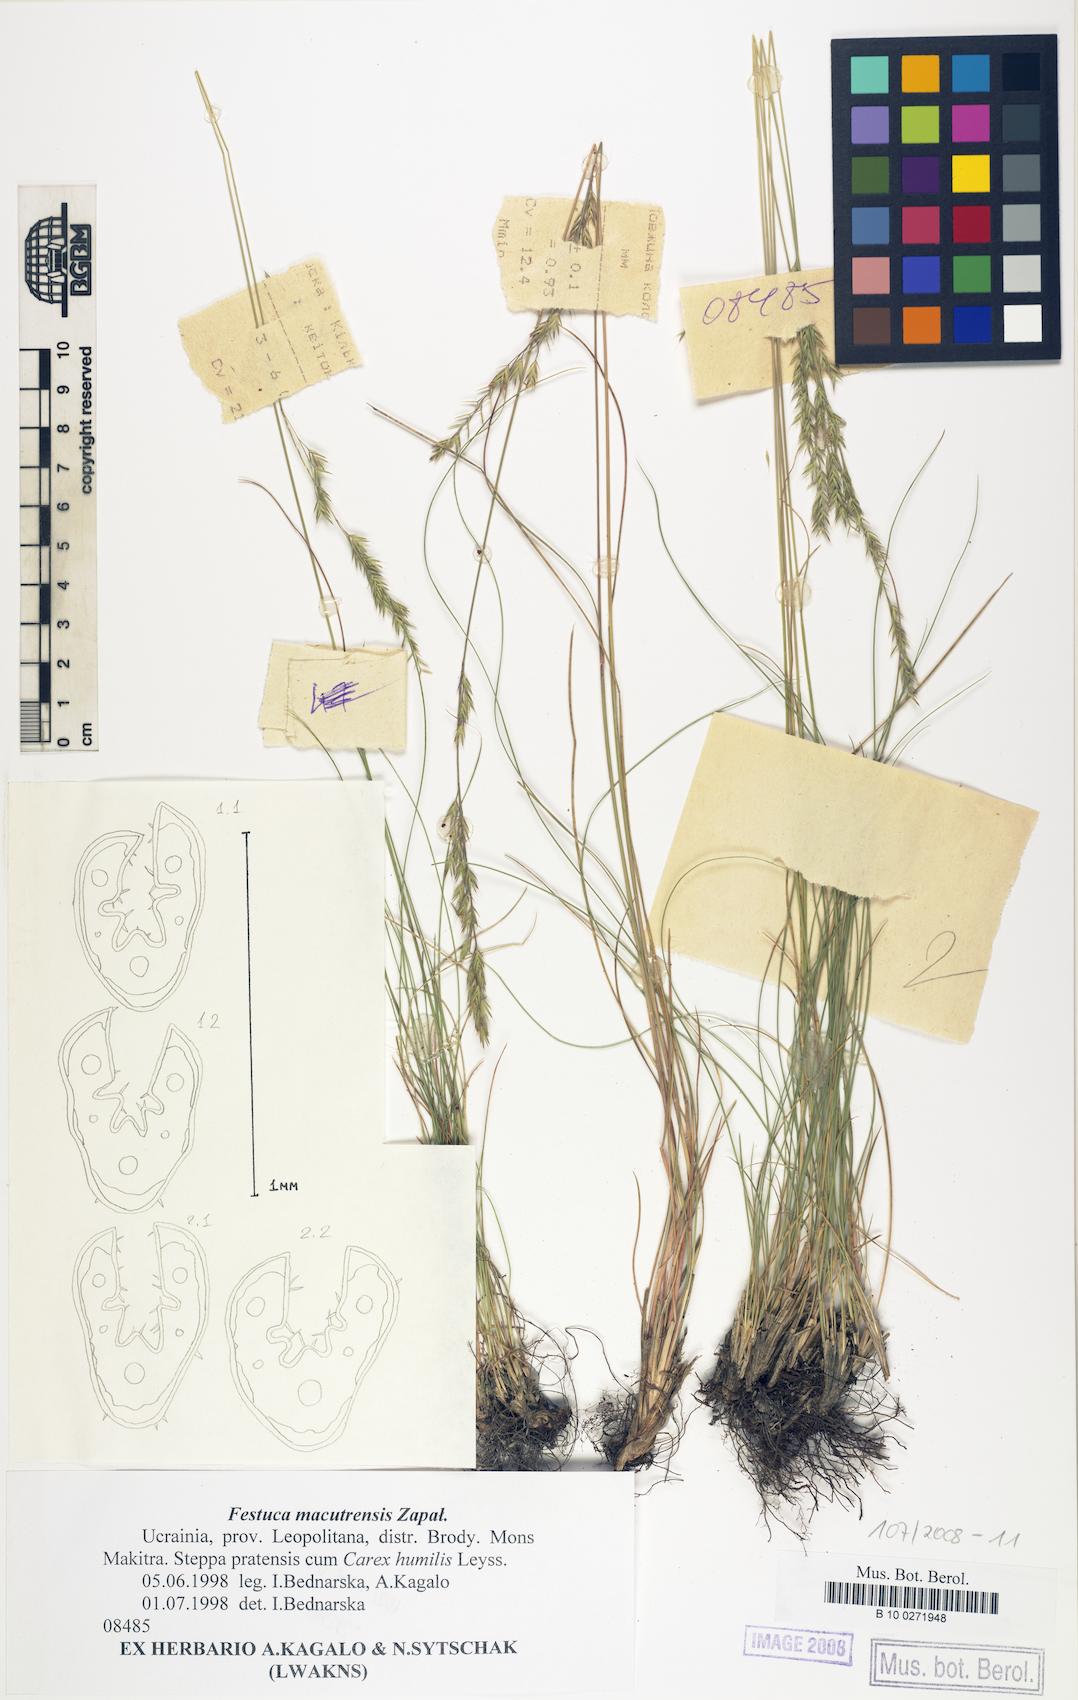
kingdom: Plantae
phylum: Tracheophyta
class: Liliopsida
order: Poales
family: Poaceae
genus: Festuca
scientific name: Festuca macutrensis
